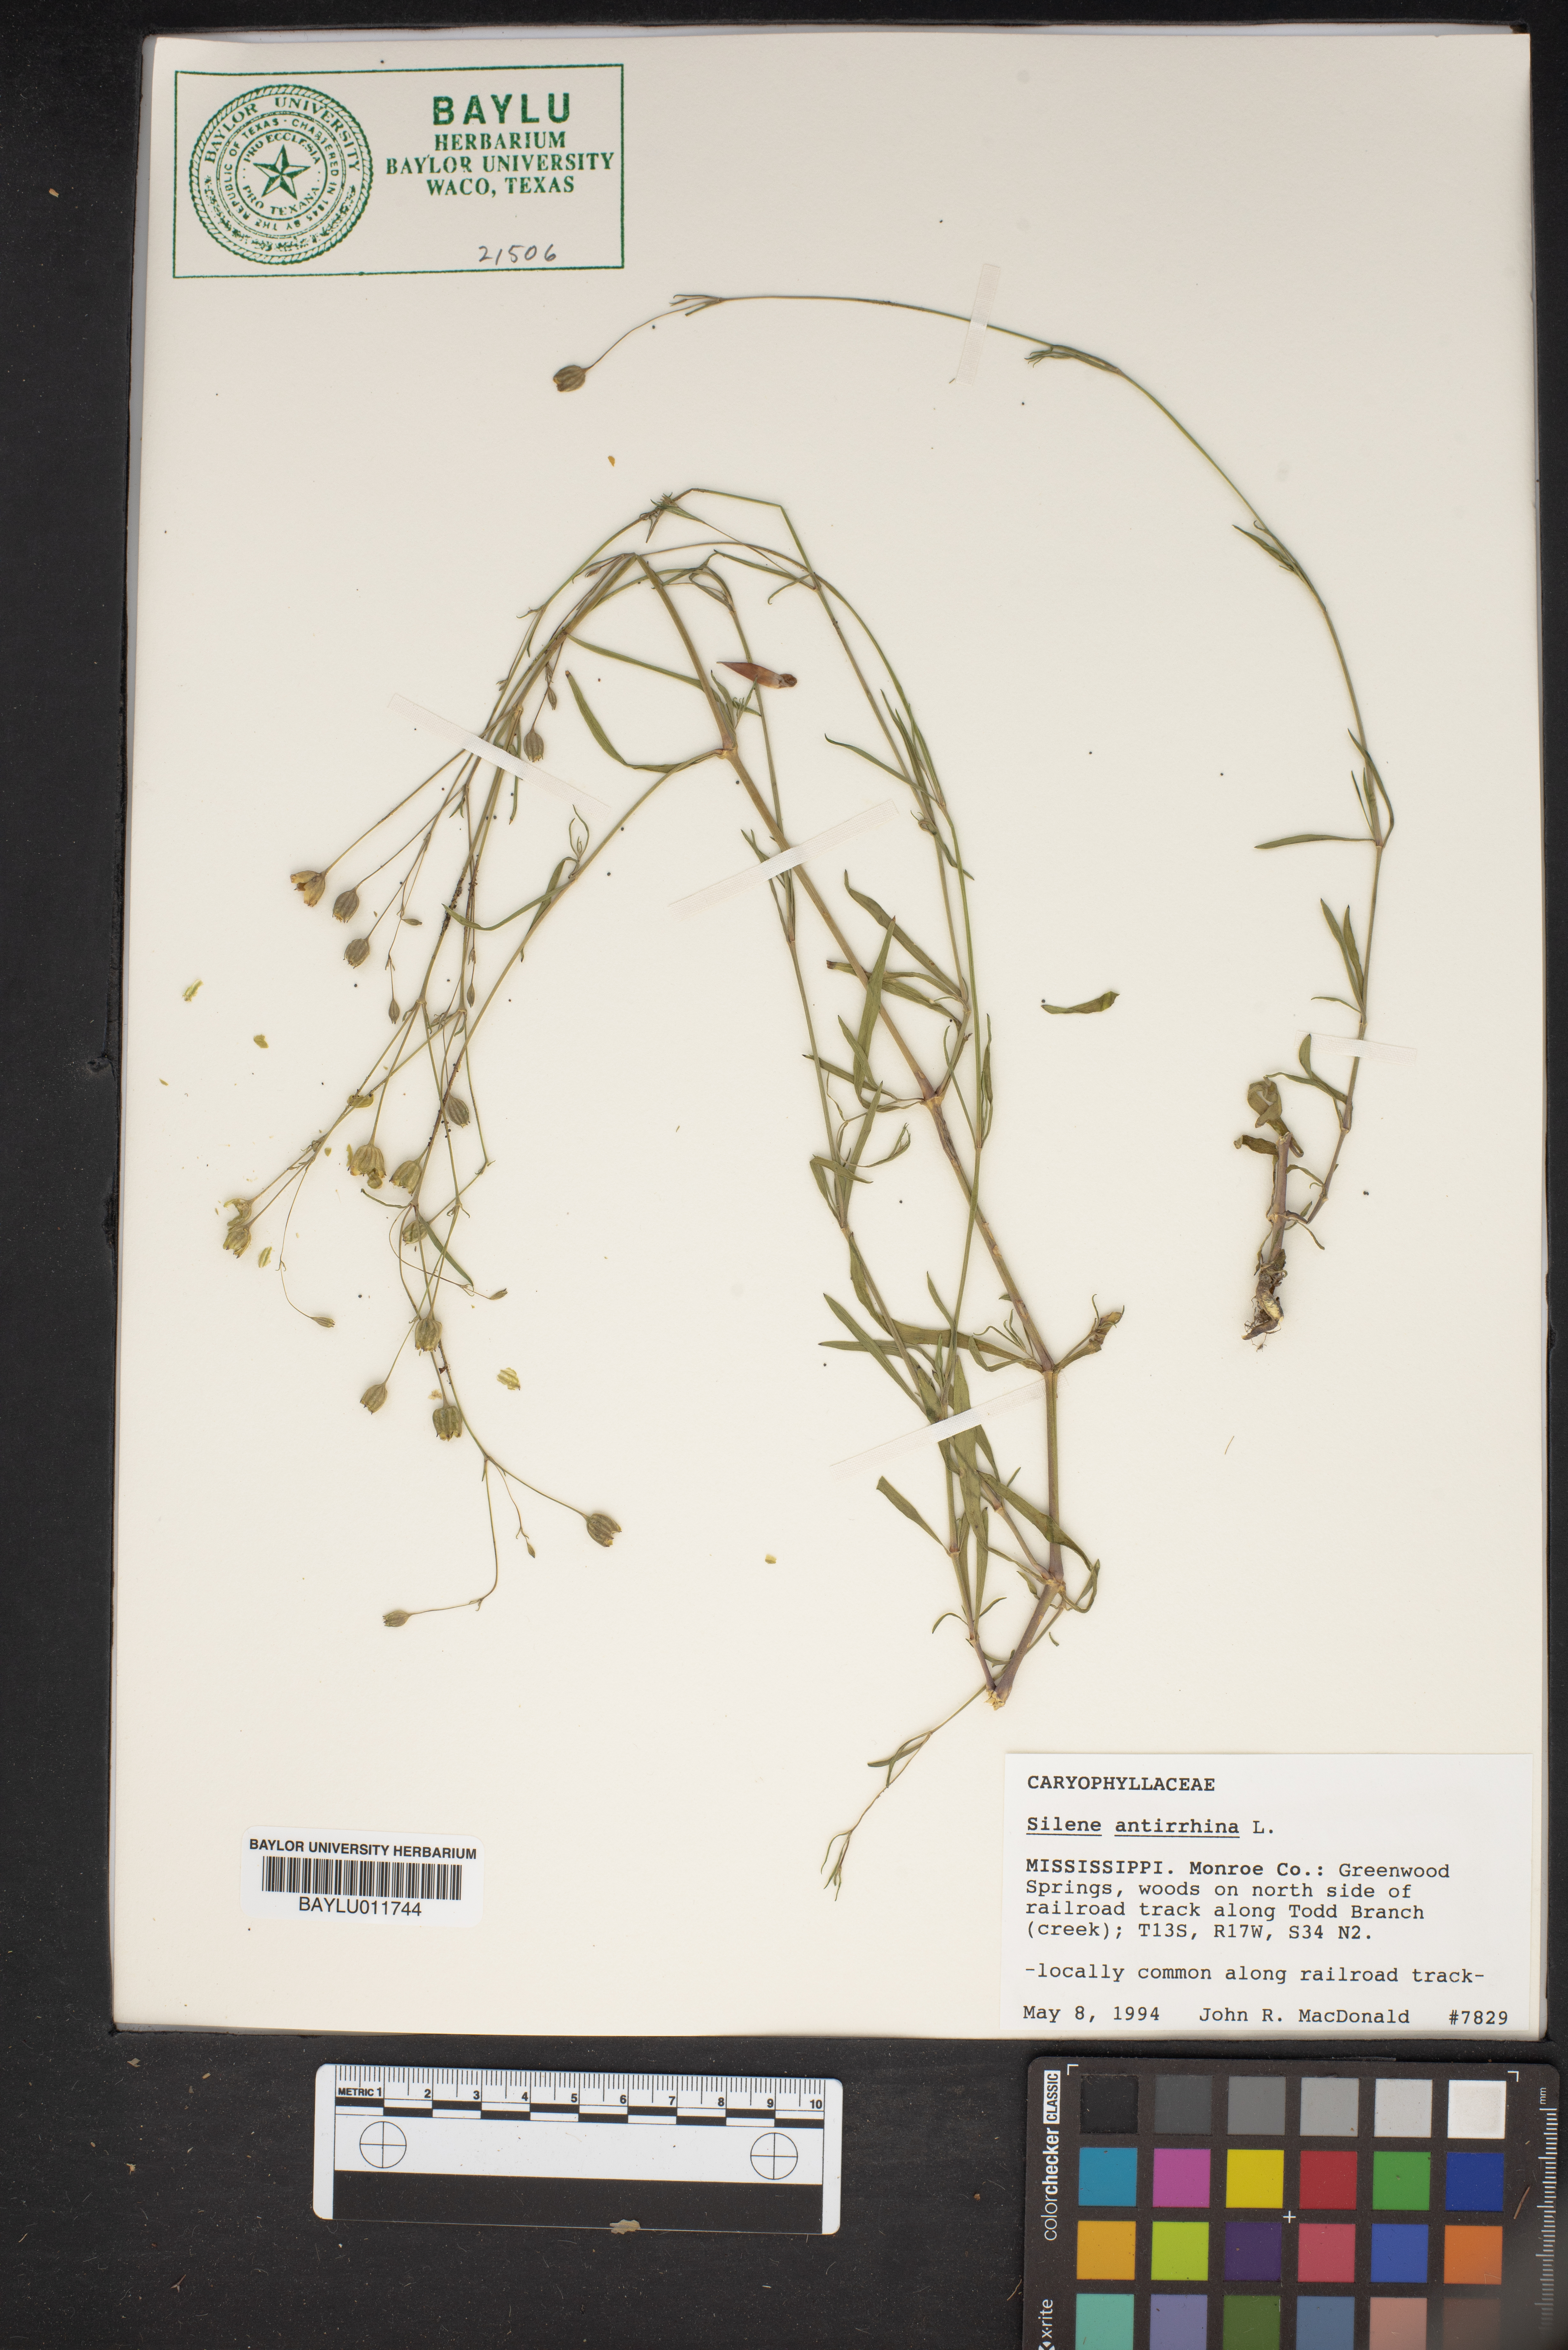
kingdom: Plantae
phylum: Tracheophyta
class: Magnoliopsida
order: Caryophyllales
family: Caryophyllaceae
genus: Silene
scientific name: Silene antirrhina
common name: Sleepy catchfly
